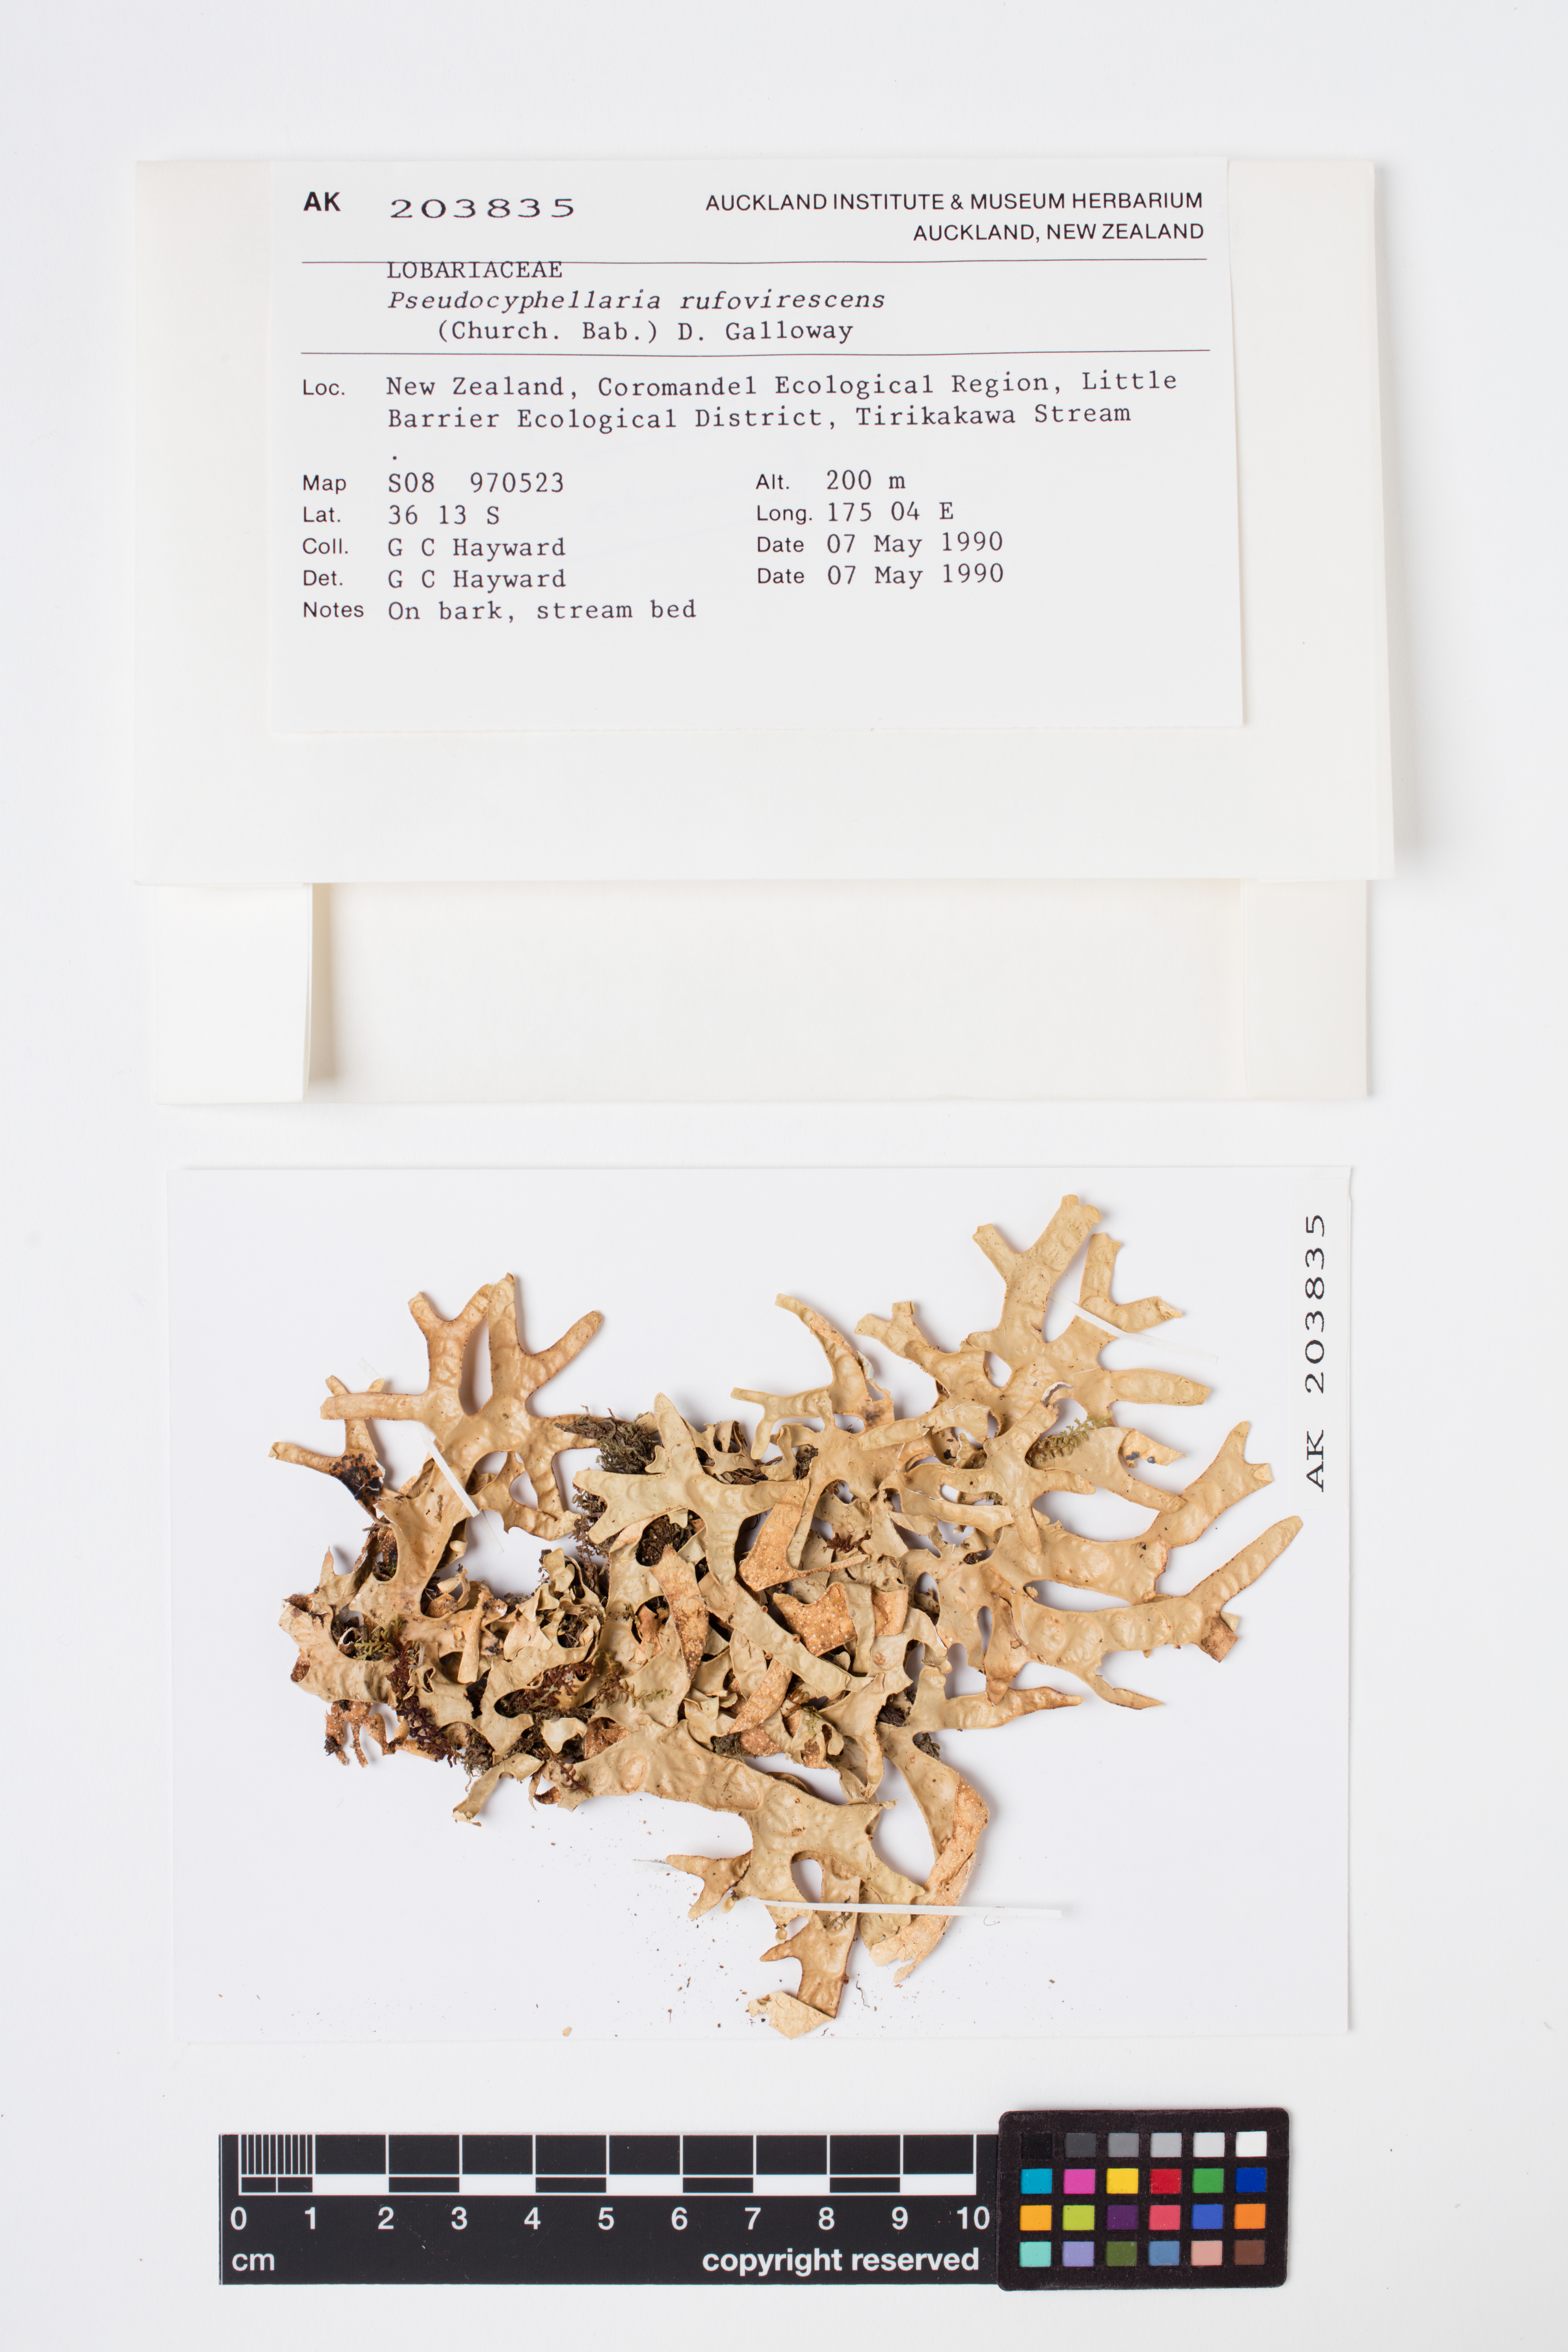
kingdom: Fungi
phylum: Ascomycota
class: Lecanoromycetes
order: Peltigerales
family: Lobariaceae
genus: Pseudocyphellaria
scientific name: Pseudocyphellaria rufovirescens
